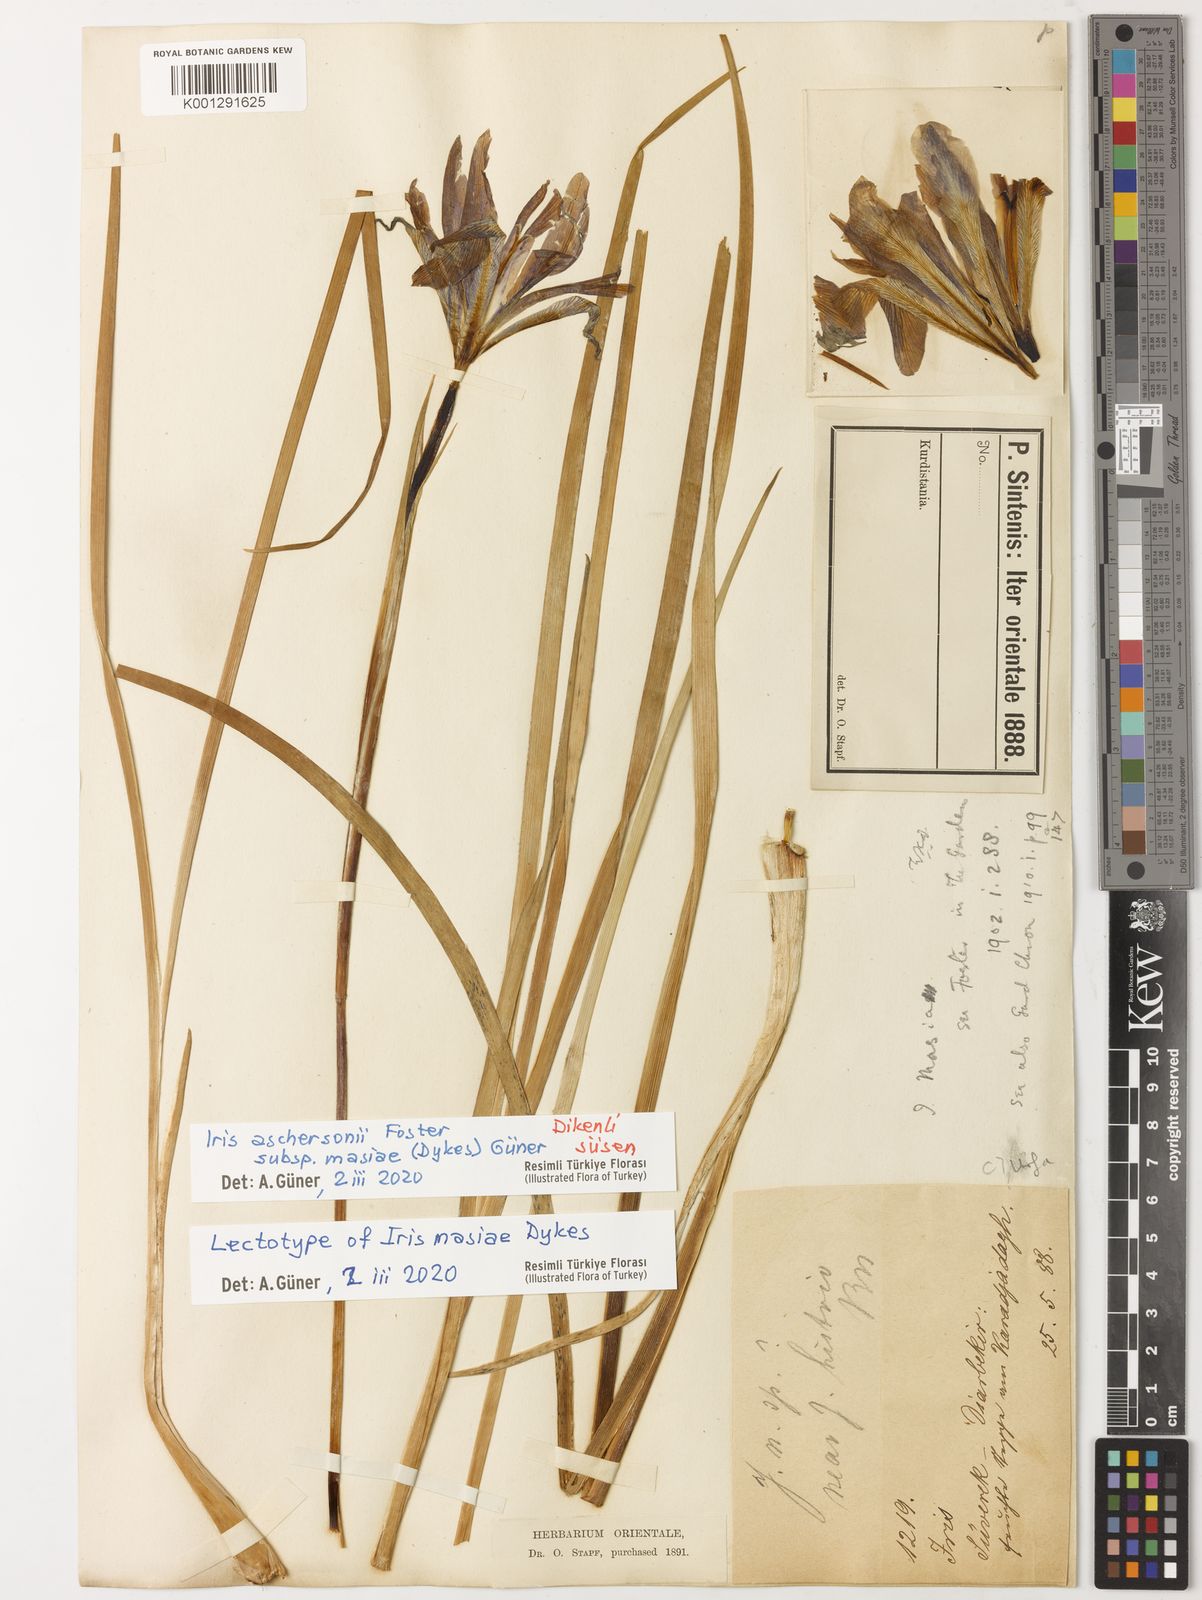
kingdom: Plantae
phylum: Tracheophyta
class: Liliopsida
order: Asparagales
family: Iridaceae
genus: Iris
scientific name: Iris grant-duffii
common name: Grant duff's iris
